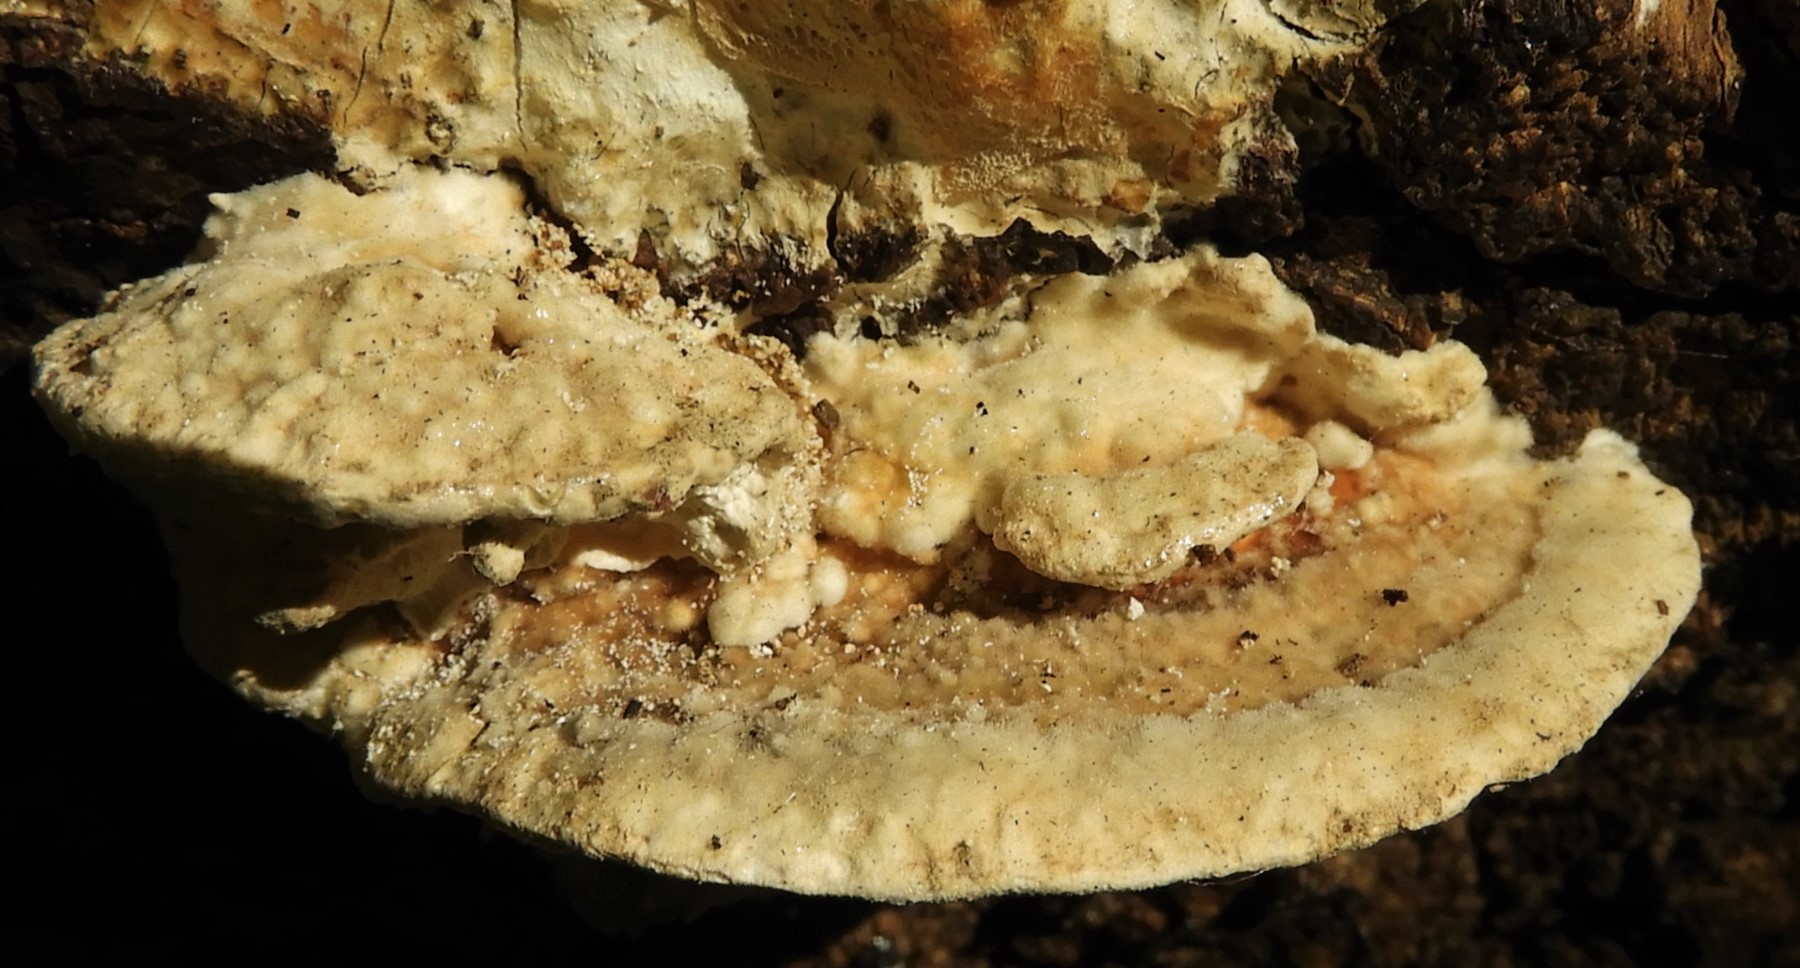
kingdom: Fungi
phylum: Basidiomycota
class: Agaricomycetes
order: Polyporales
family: Polyporaceae
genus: Trametes
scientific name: Trametes
